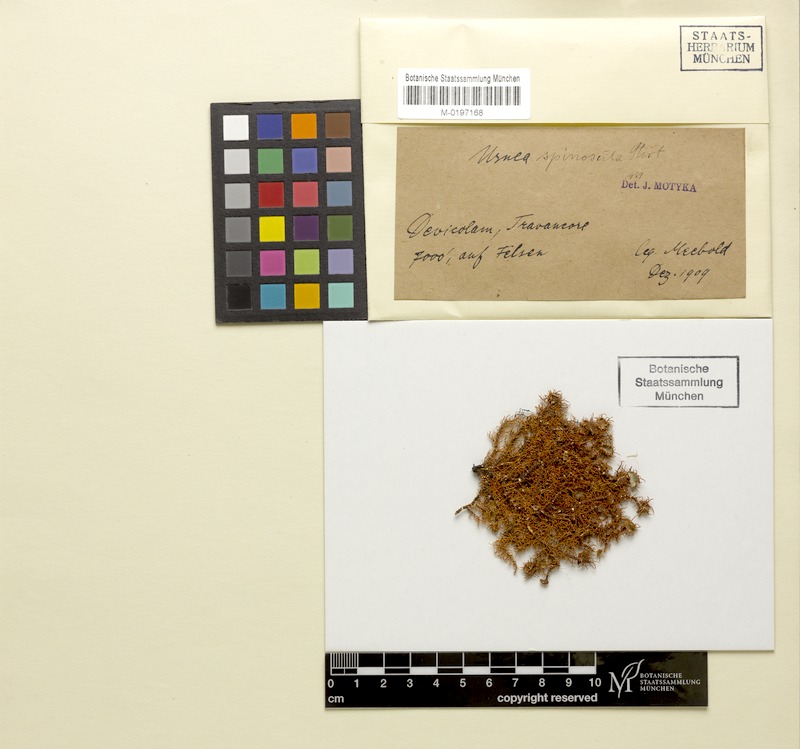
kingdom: Fungi
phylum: Ascomycota
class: Lecanoromycetes
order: Lecanorales
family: Parmeliaceae
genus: Usnea
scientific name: Usnea
